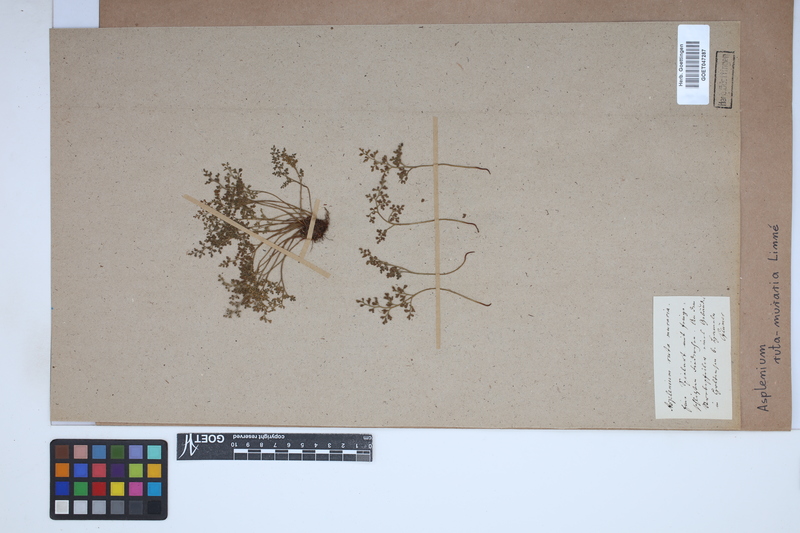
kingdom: Plantae
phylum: Tracheophyta
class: Polypodiopsida
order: Polypodiales
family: Aspleniaceae
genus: Asplenium
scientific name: Asplenium ruta-muraria
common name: Wall-rue
